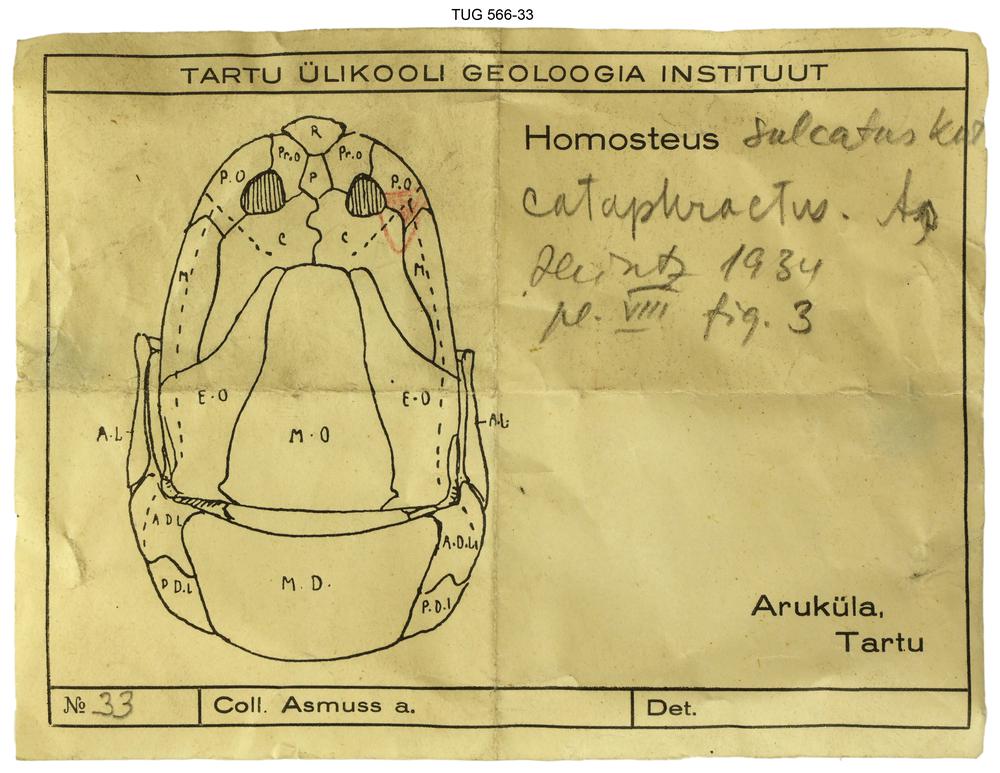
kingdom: Animalia
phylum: Chordata
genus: Homosteus
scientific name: Homosteus sulcatus
